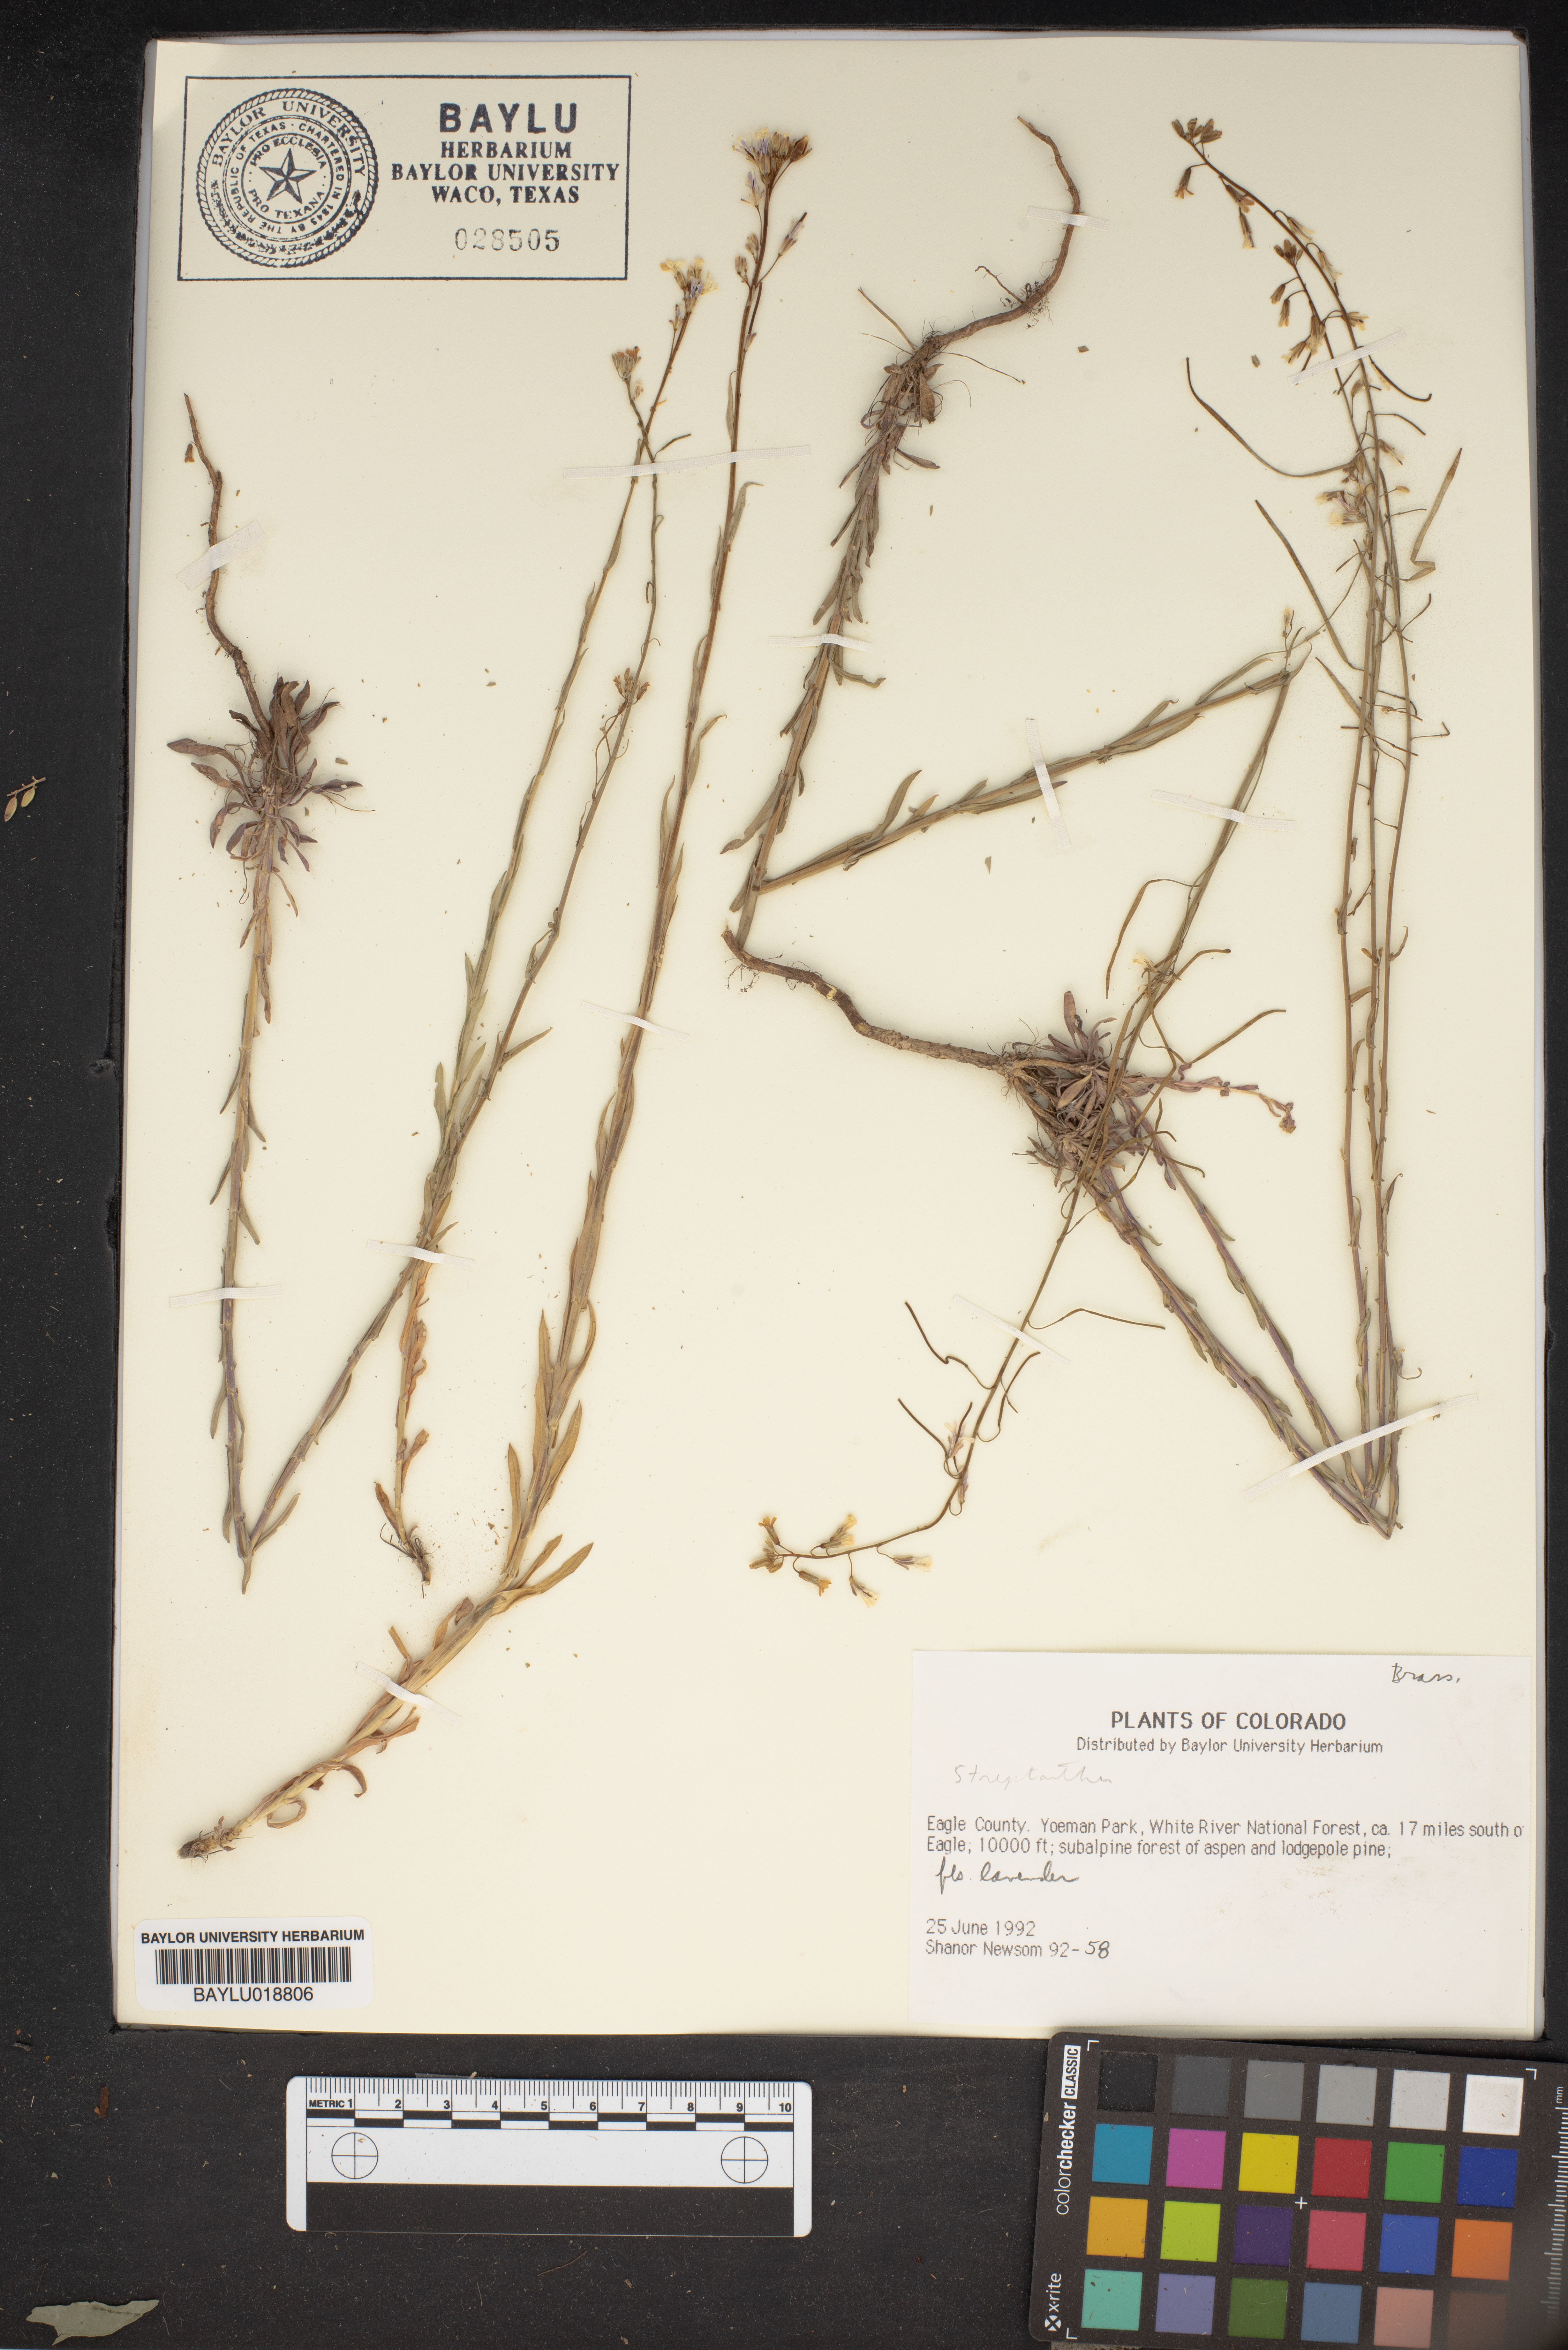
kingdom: Plantae
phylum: Tracheophyta
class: Magnoliopsida
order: Brassicales
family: Brassicaceae
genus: Streptanthus
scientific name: Streptanthus
